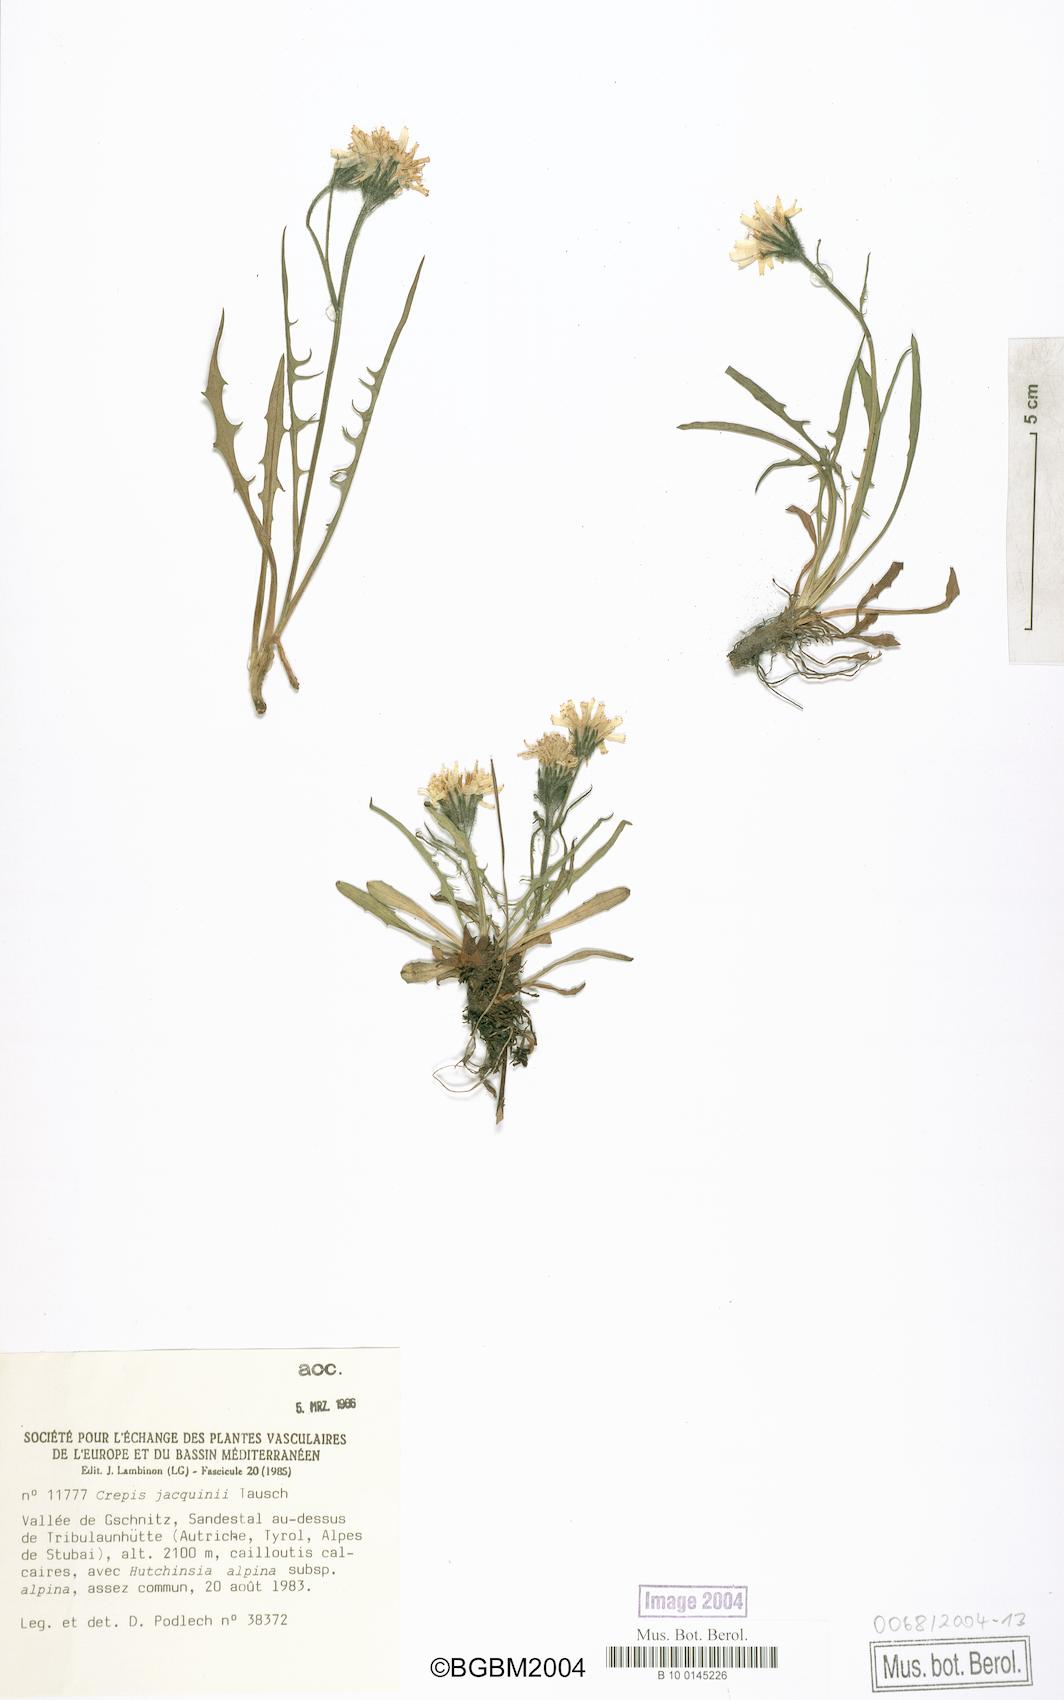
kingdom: Plantae
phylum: Tracheophyta
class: Magnoliopsida
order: Asterales
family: Asteraceae
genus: Crepis
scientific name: Crepis jacquinii
